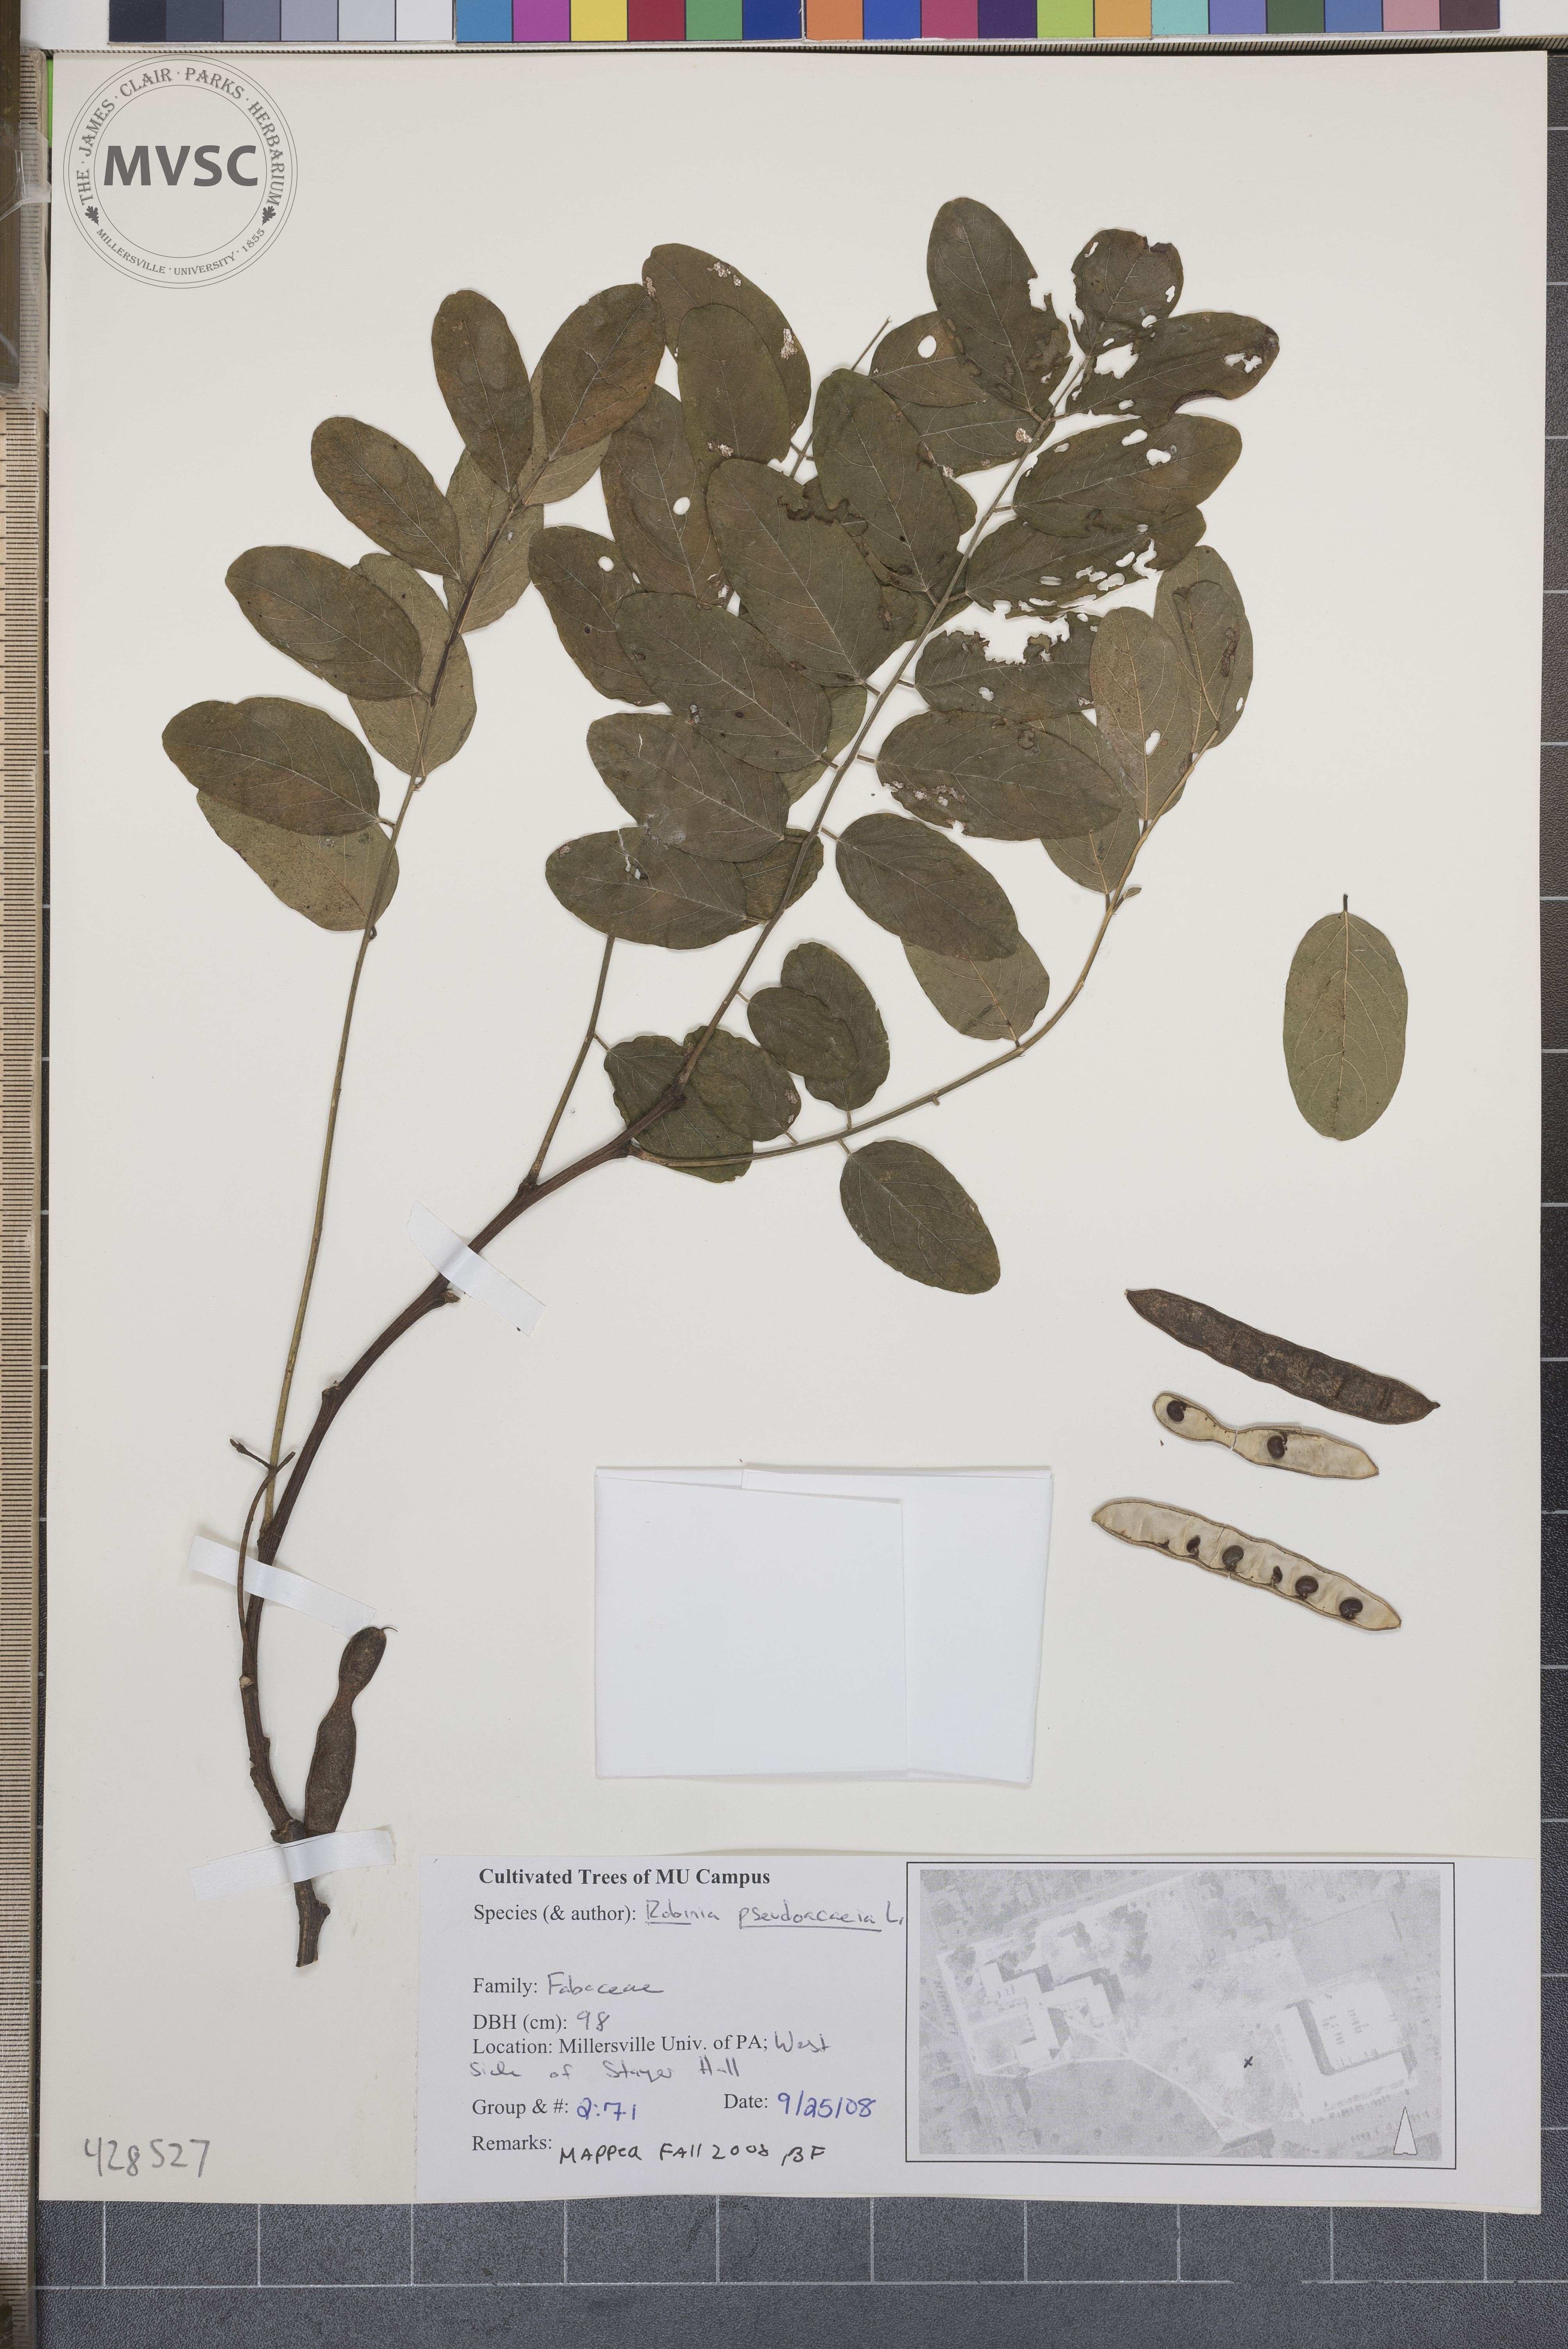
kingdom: Plantae
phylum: Tracheophyta
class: Magnoliopsida
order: Fabales
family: Fabaceae
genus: Robinia
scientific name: Robinia pseudoacacia
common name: Black Locust
